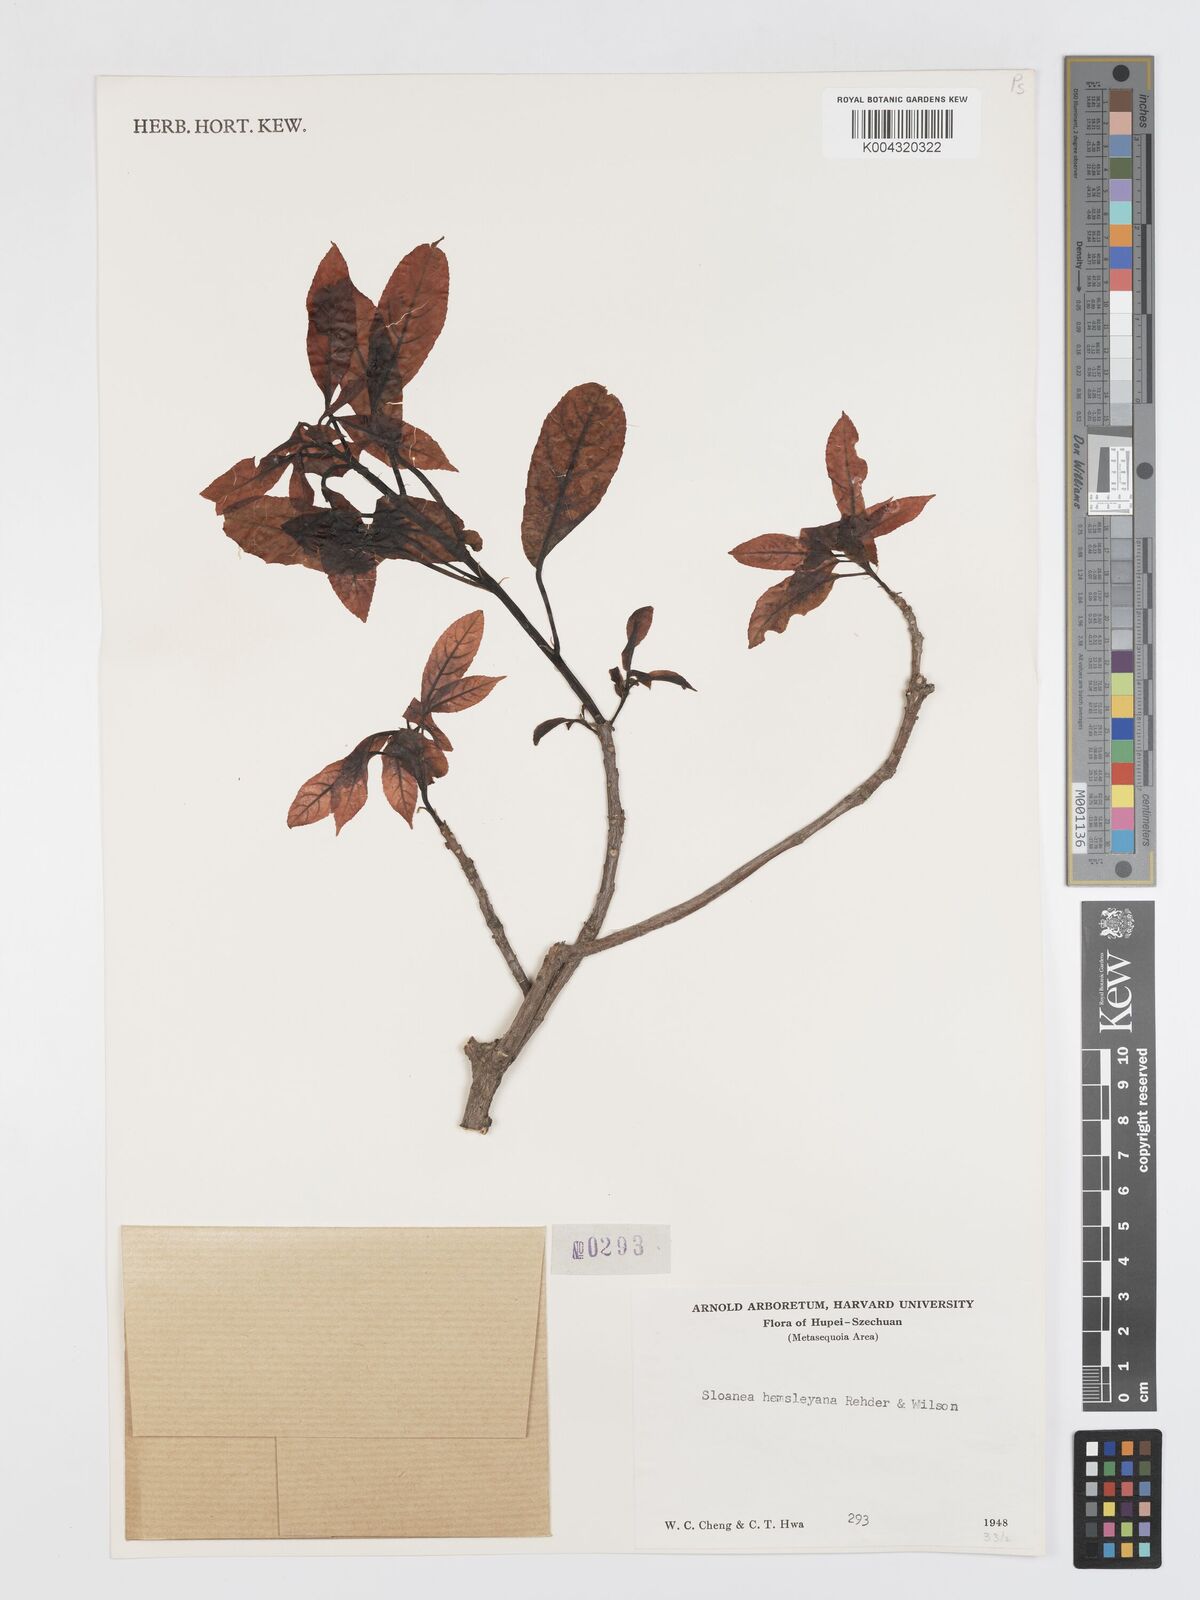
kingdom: Plantae
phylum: Tracheophyta
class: Magnoliopsida
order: Oxalidales
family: Elaeocarpaceae
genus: Sloanea
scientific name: Sloanea hemsleyana
